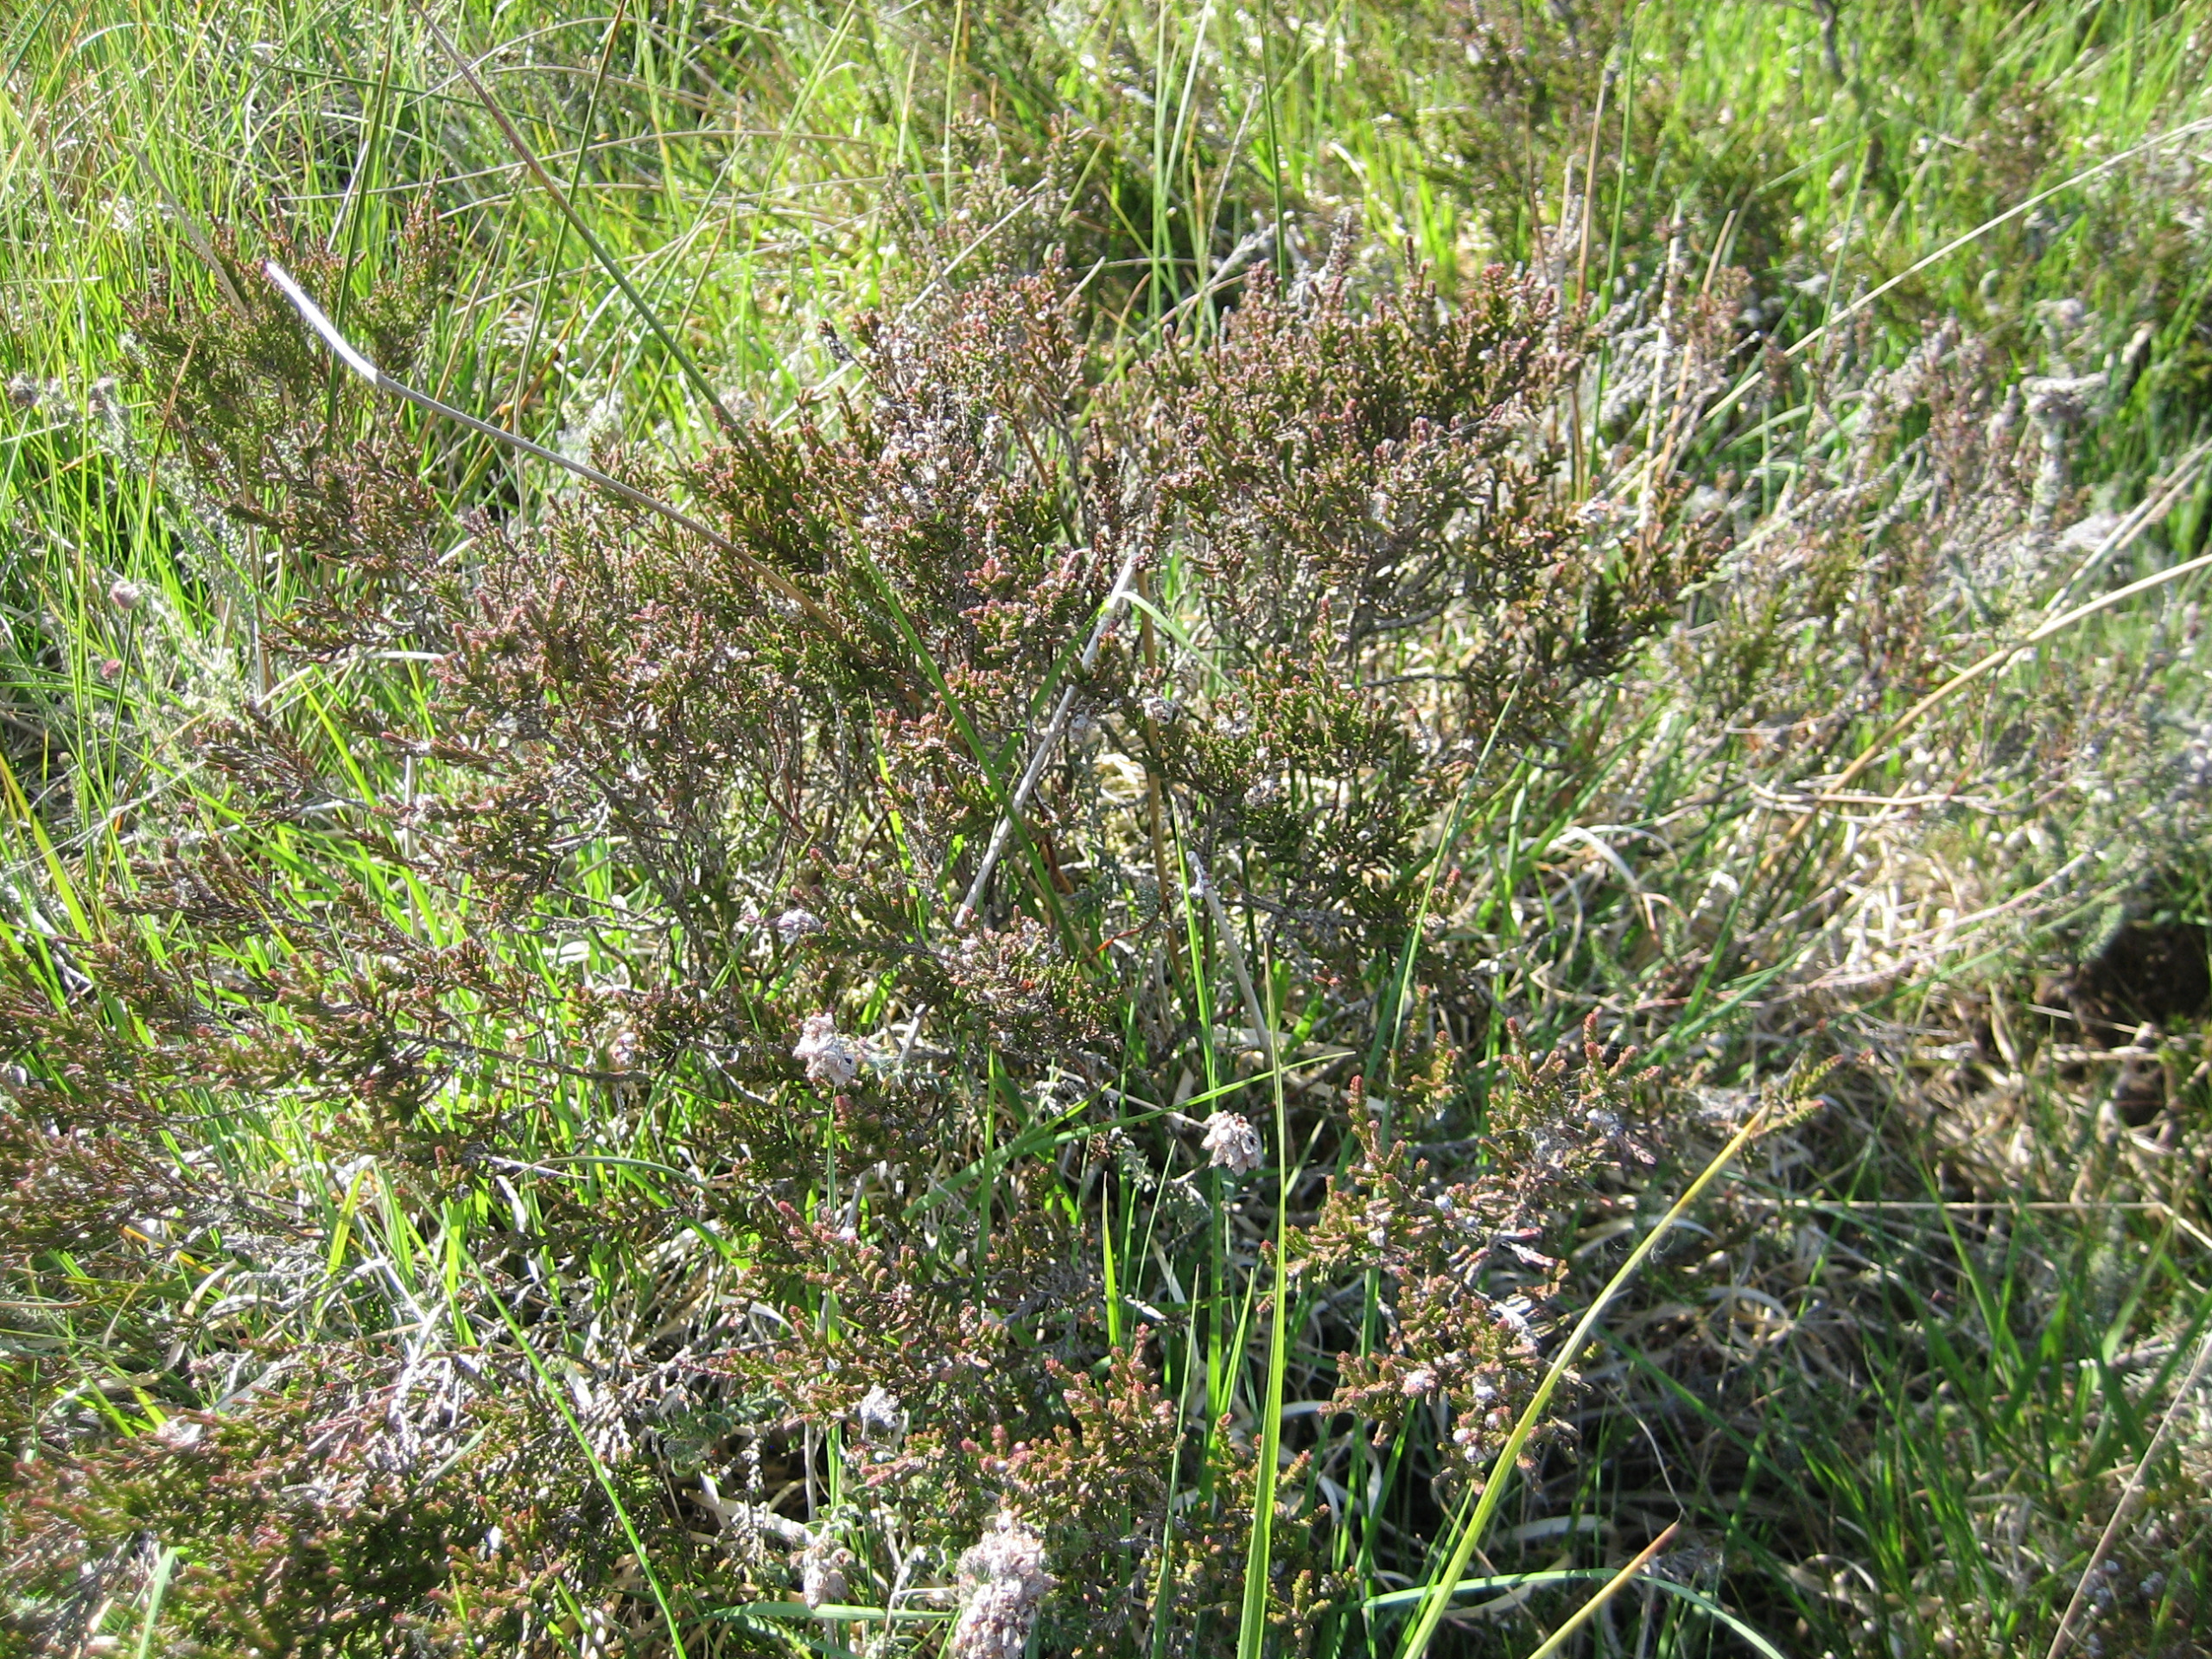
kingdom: Plantae
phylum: Tracheophyta
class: Magnoliopsida
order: Ericales
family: Ericaceae
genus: Calluna
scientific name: Calluna vulgaris
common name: Hedelyng
